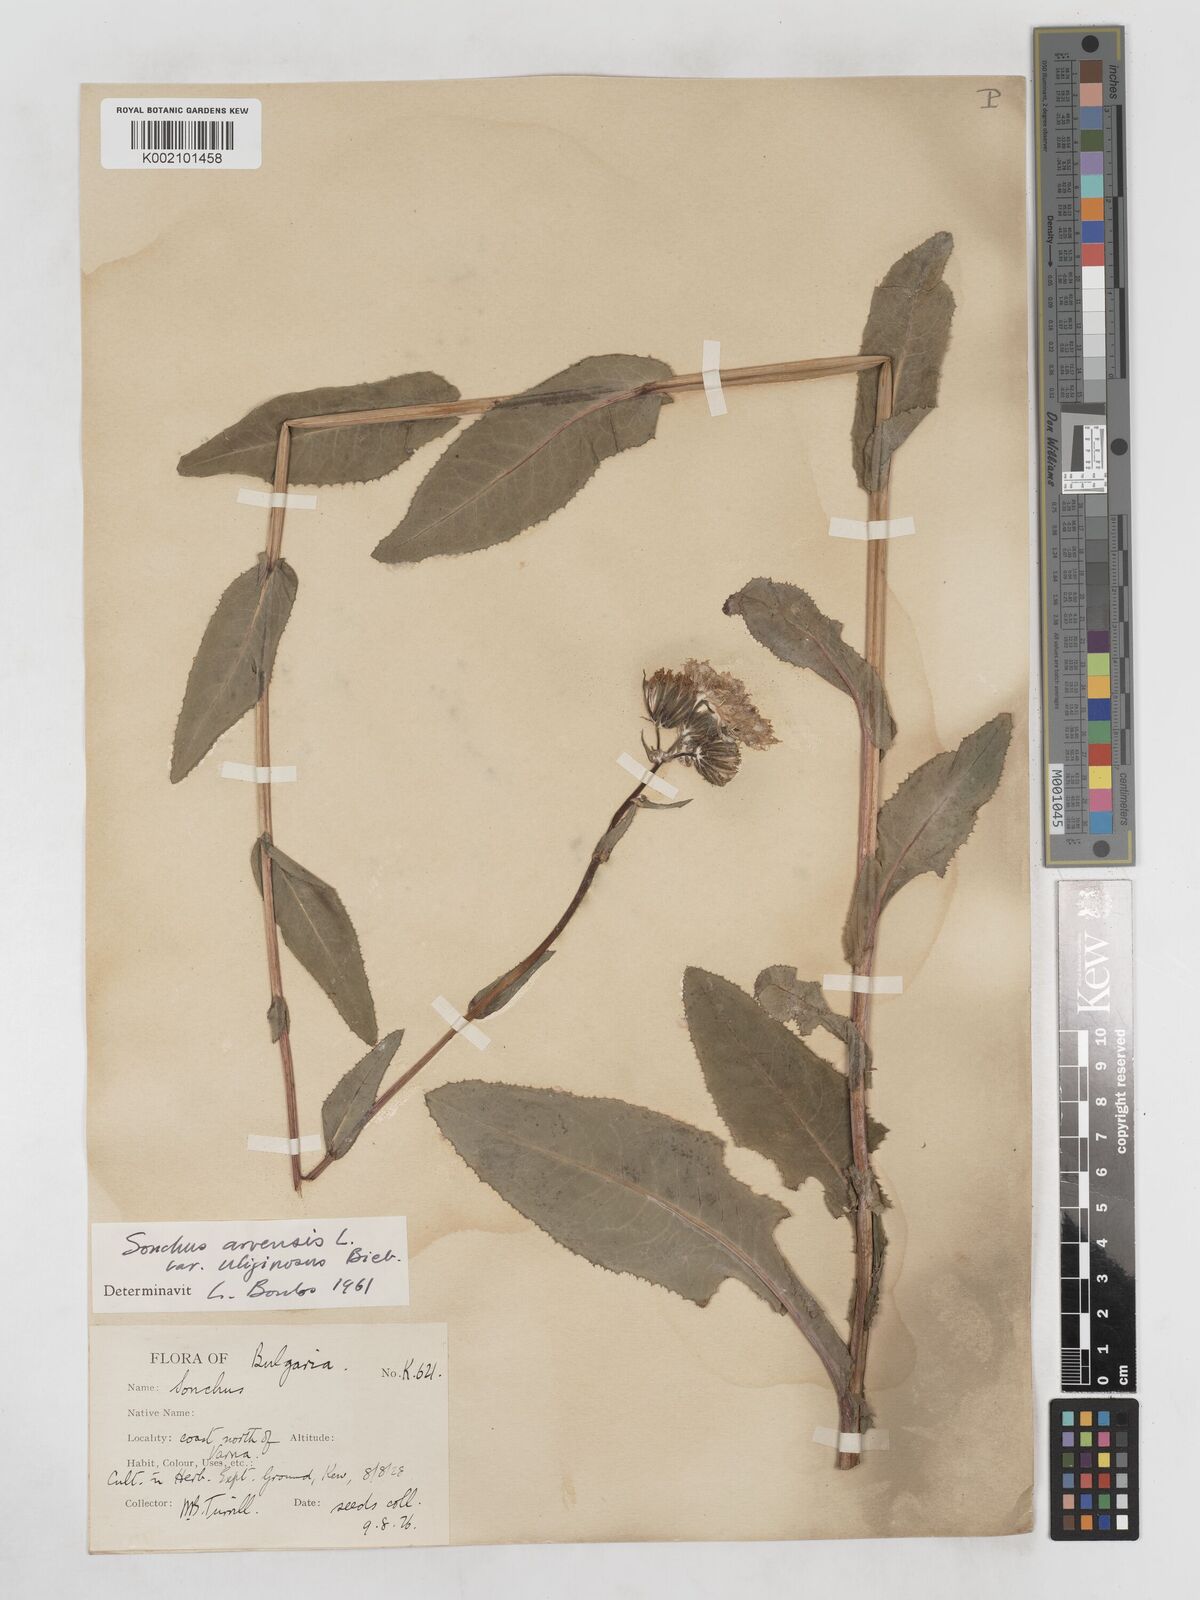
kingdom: Plantae
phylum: Tracheophyta
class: Magnoliopsida
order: Asterales
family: Asteraceae
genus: Sonchus
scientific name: Sonchus arvensis
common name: Perennial sow-thistle
